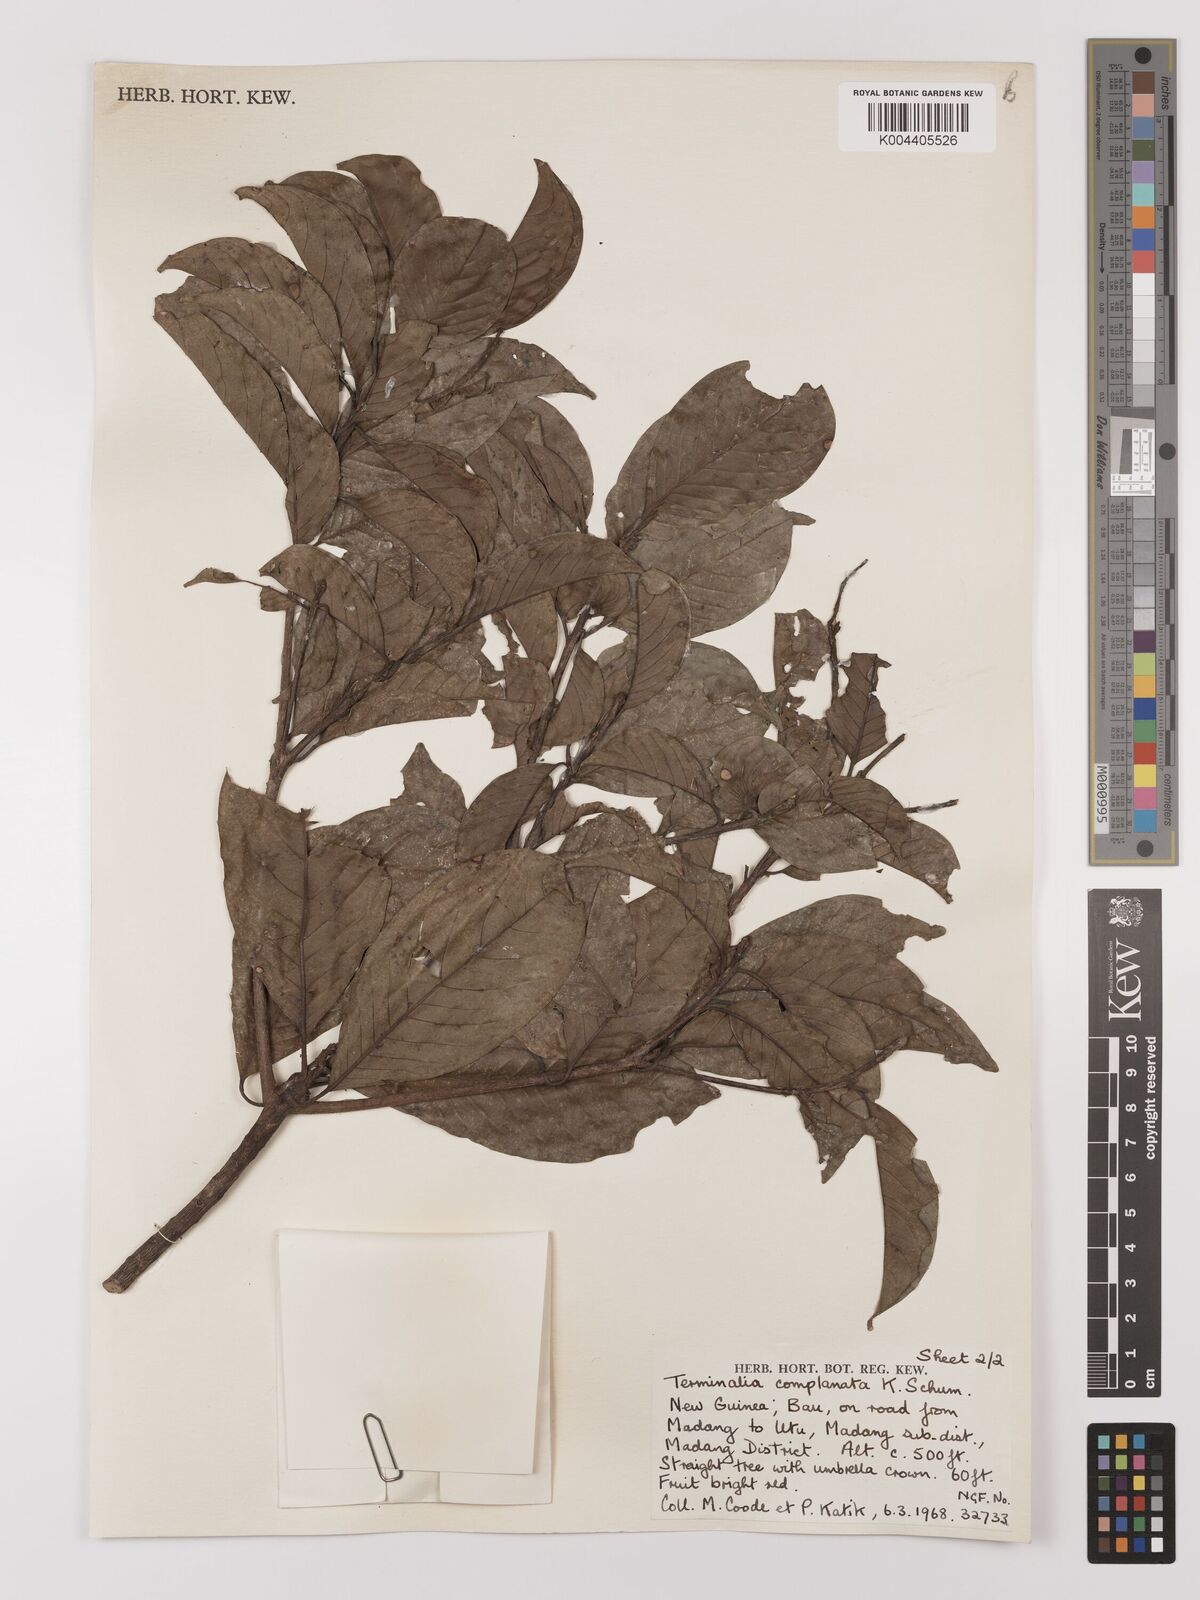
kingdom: Plantae
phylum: Tracheophyta
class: Magnoliopsida
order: Myrtales
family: Combretaceae
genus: Terminalia
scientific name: Terminalia complanata
